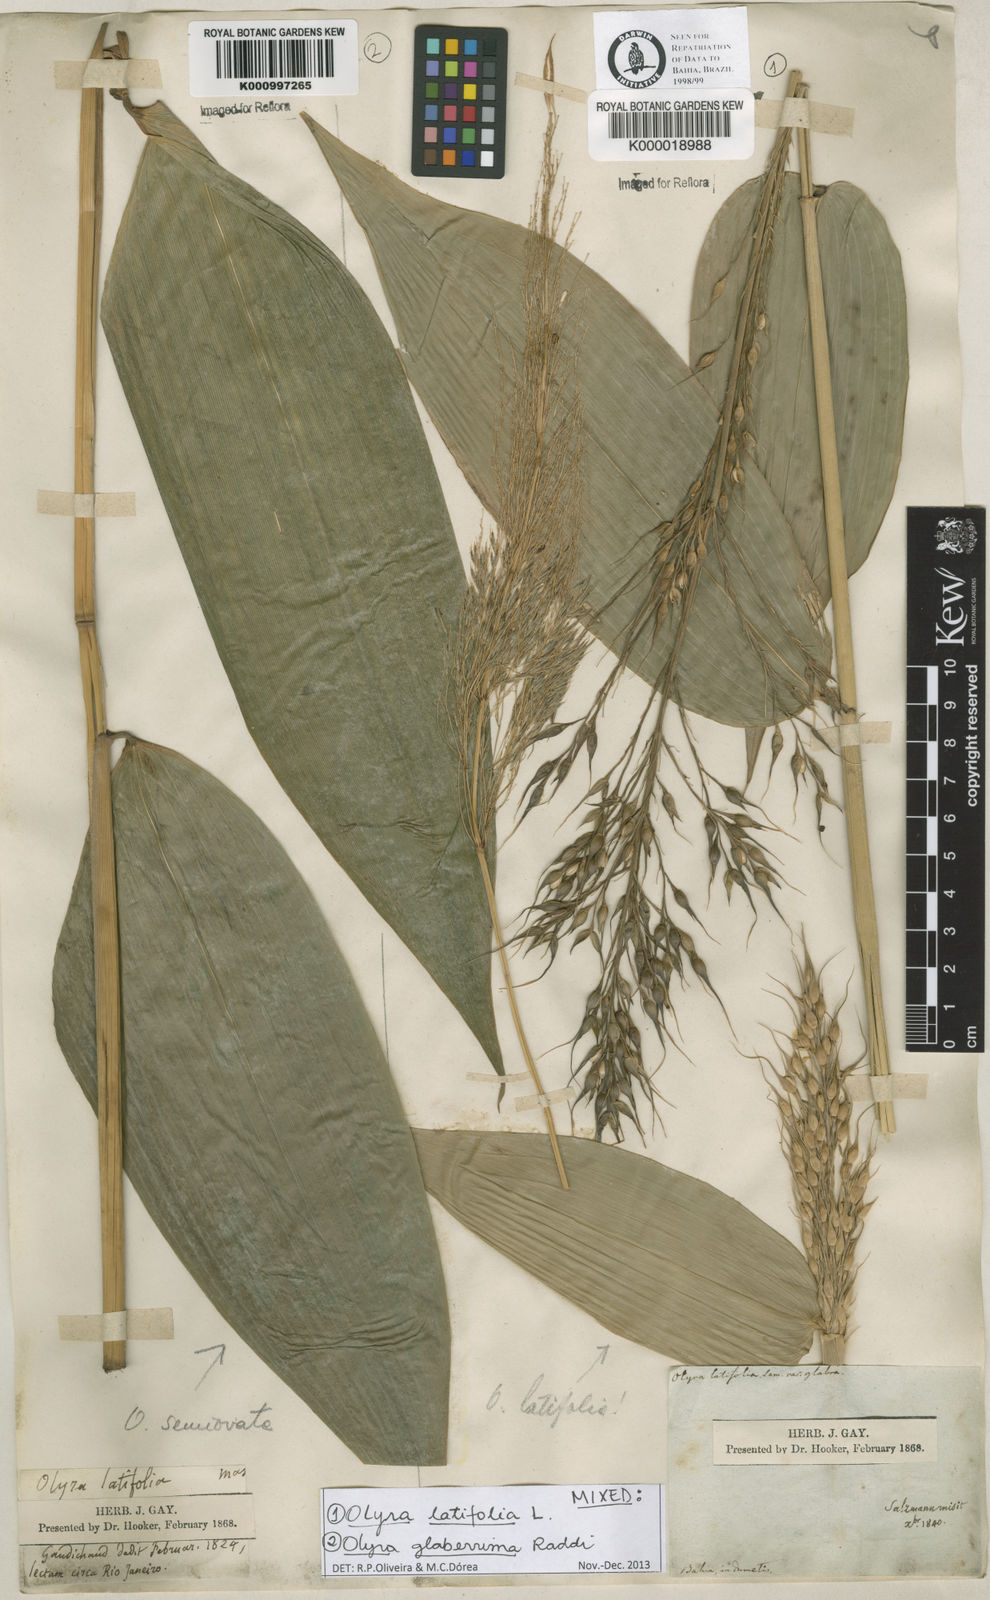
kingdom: Plantae
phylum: Tracheophyta
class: Liliopsida
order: Poales
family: Poaceae
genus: Olyra
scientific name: Olyra latifolia
